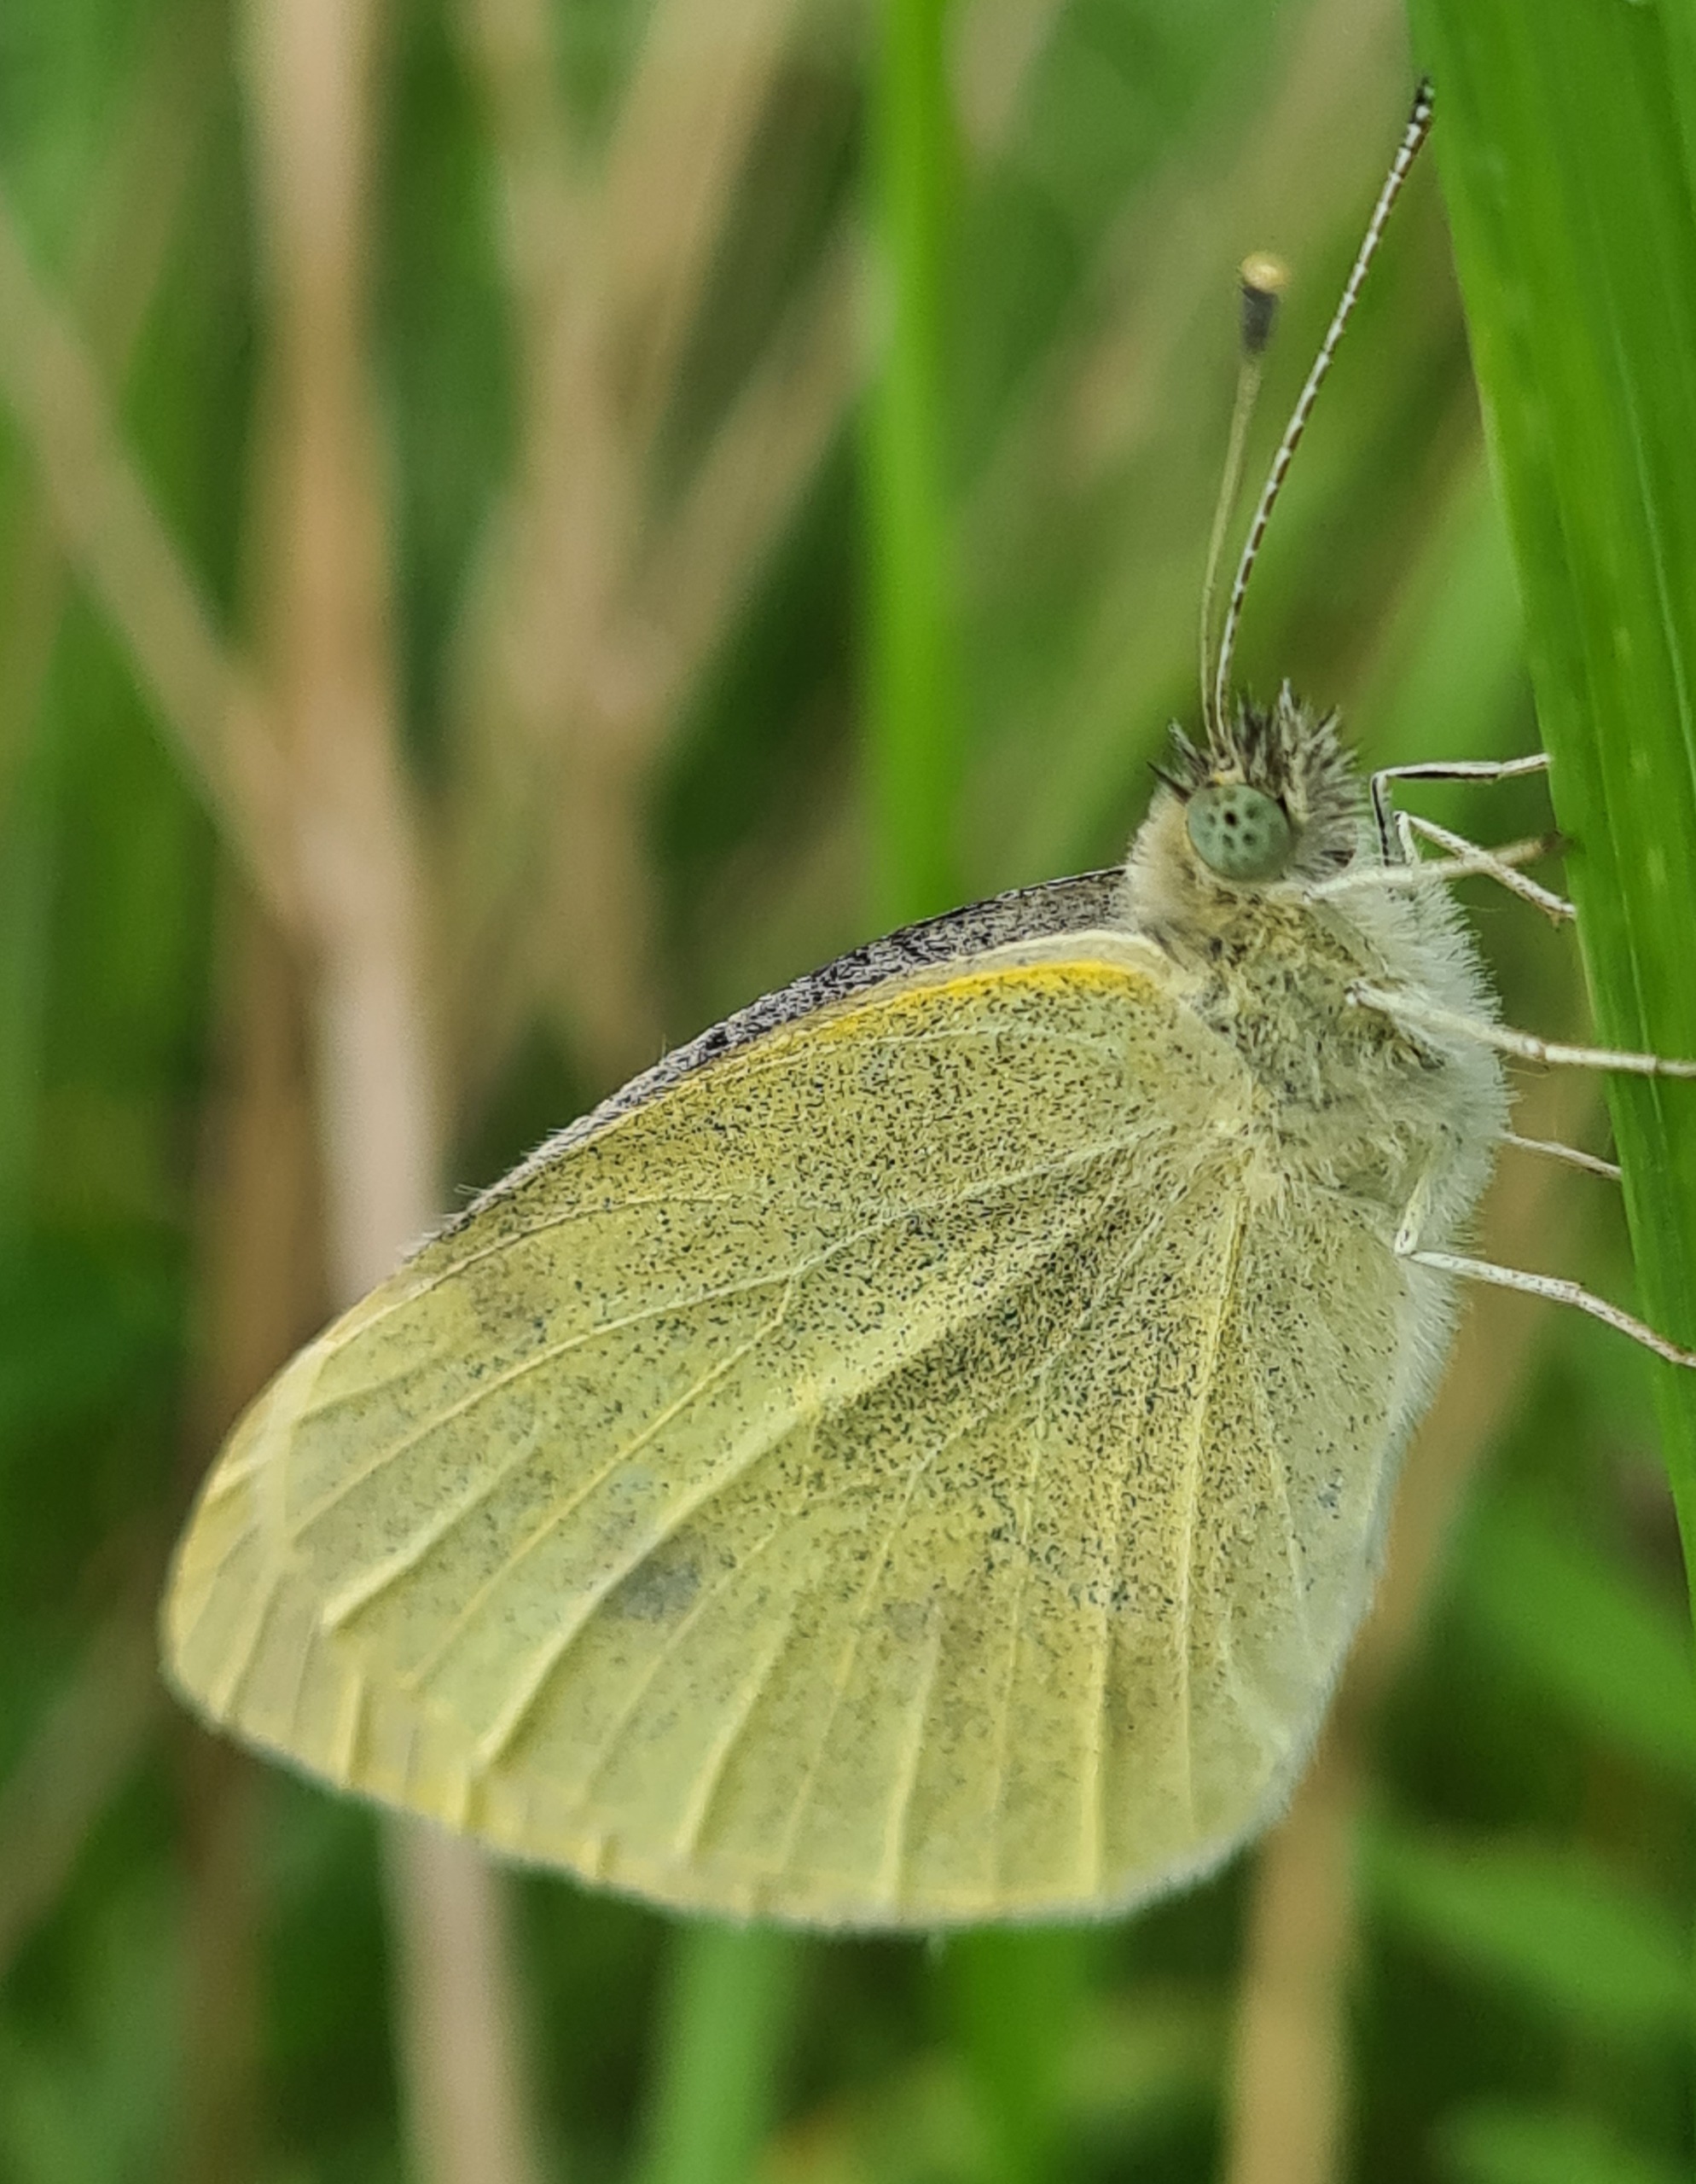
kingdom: Animalia
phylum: Arthropoda
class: Insecta
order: Lepidoptera
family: Pieridae
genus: Pieris
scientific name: Pieris rapae
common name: Lille kålsommerfugl
